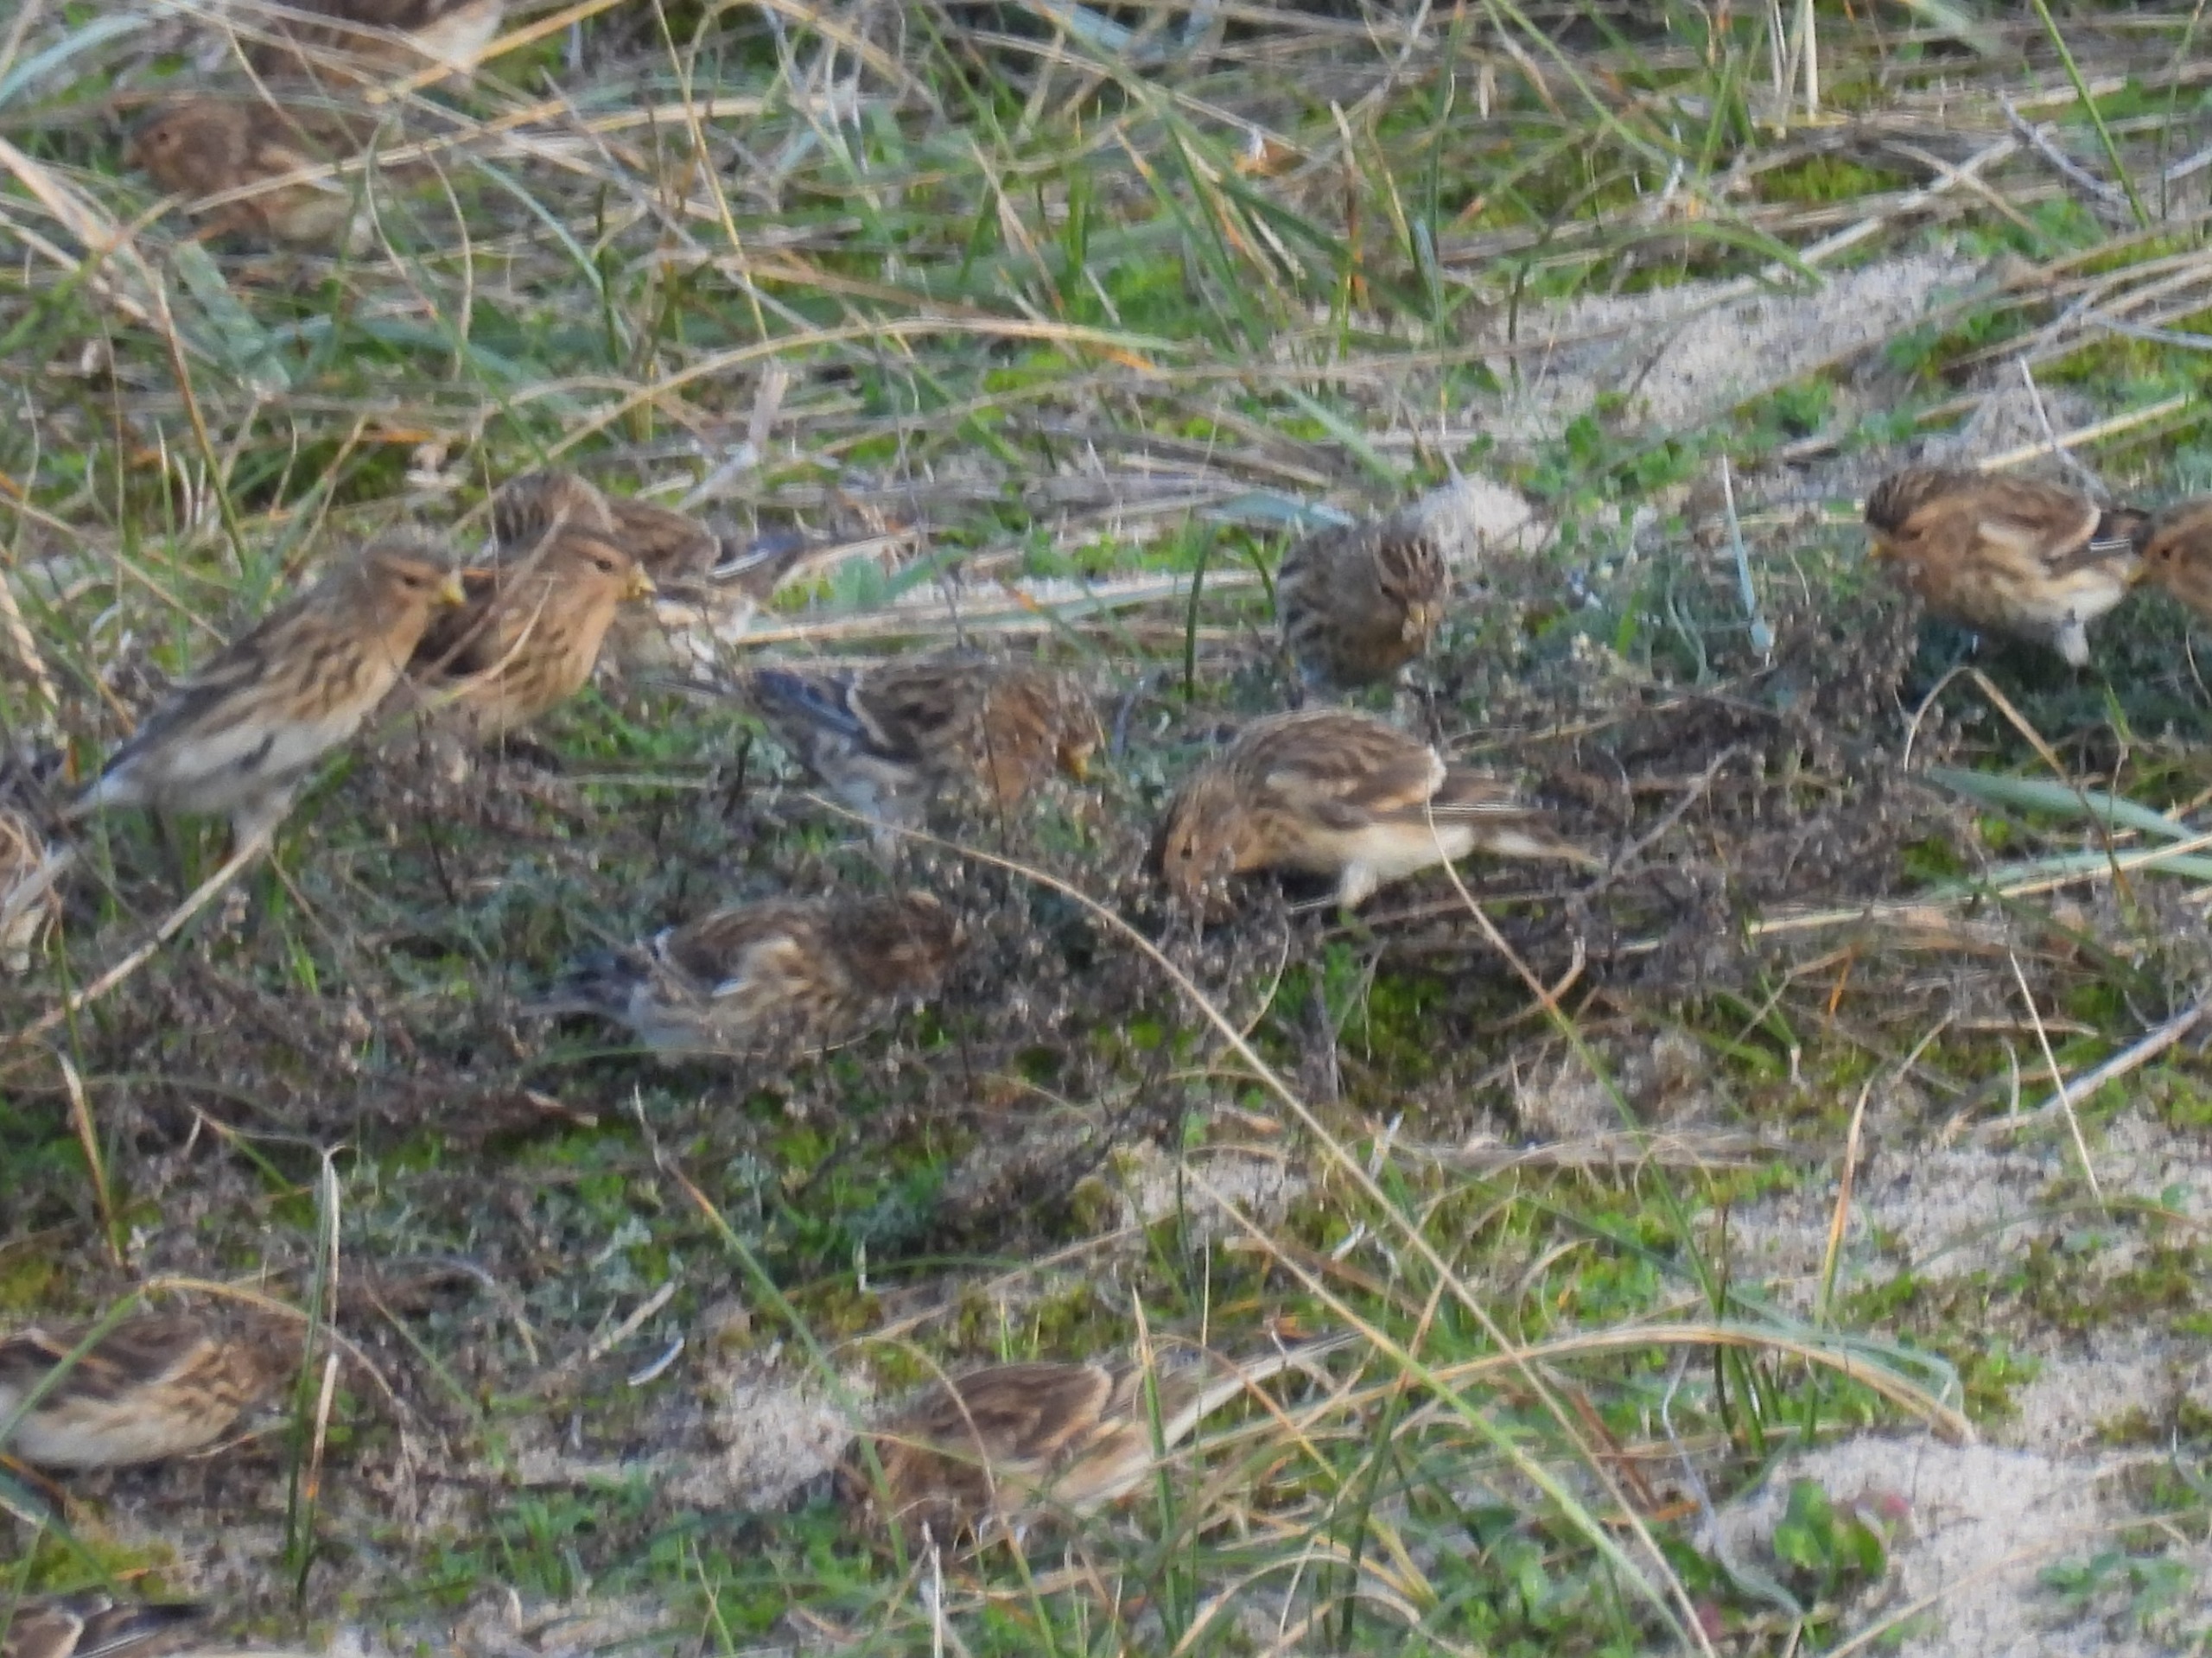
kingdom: Animalia
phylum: Chordata
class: Aves
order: Passeriformes
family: Fringillidae
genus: Linaria
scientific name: Linaria flavirostris
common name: Bjergirisk
